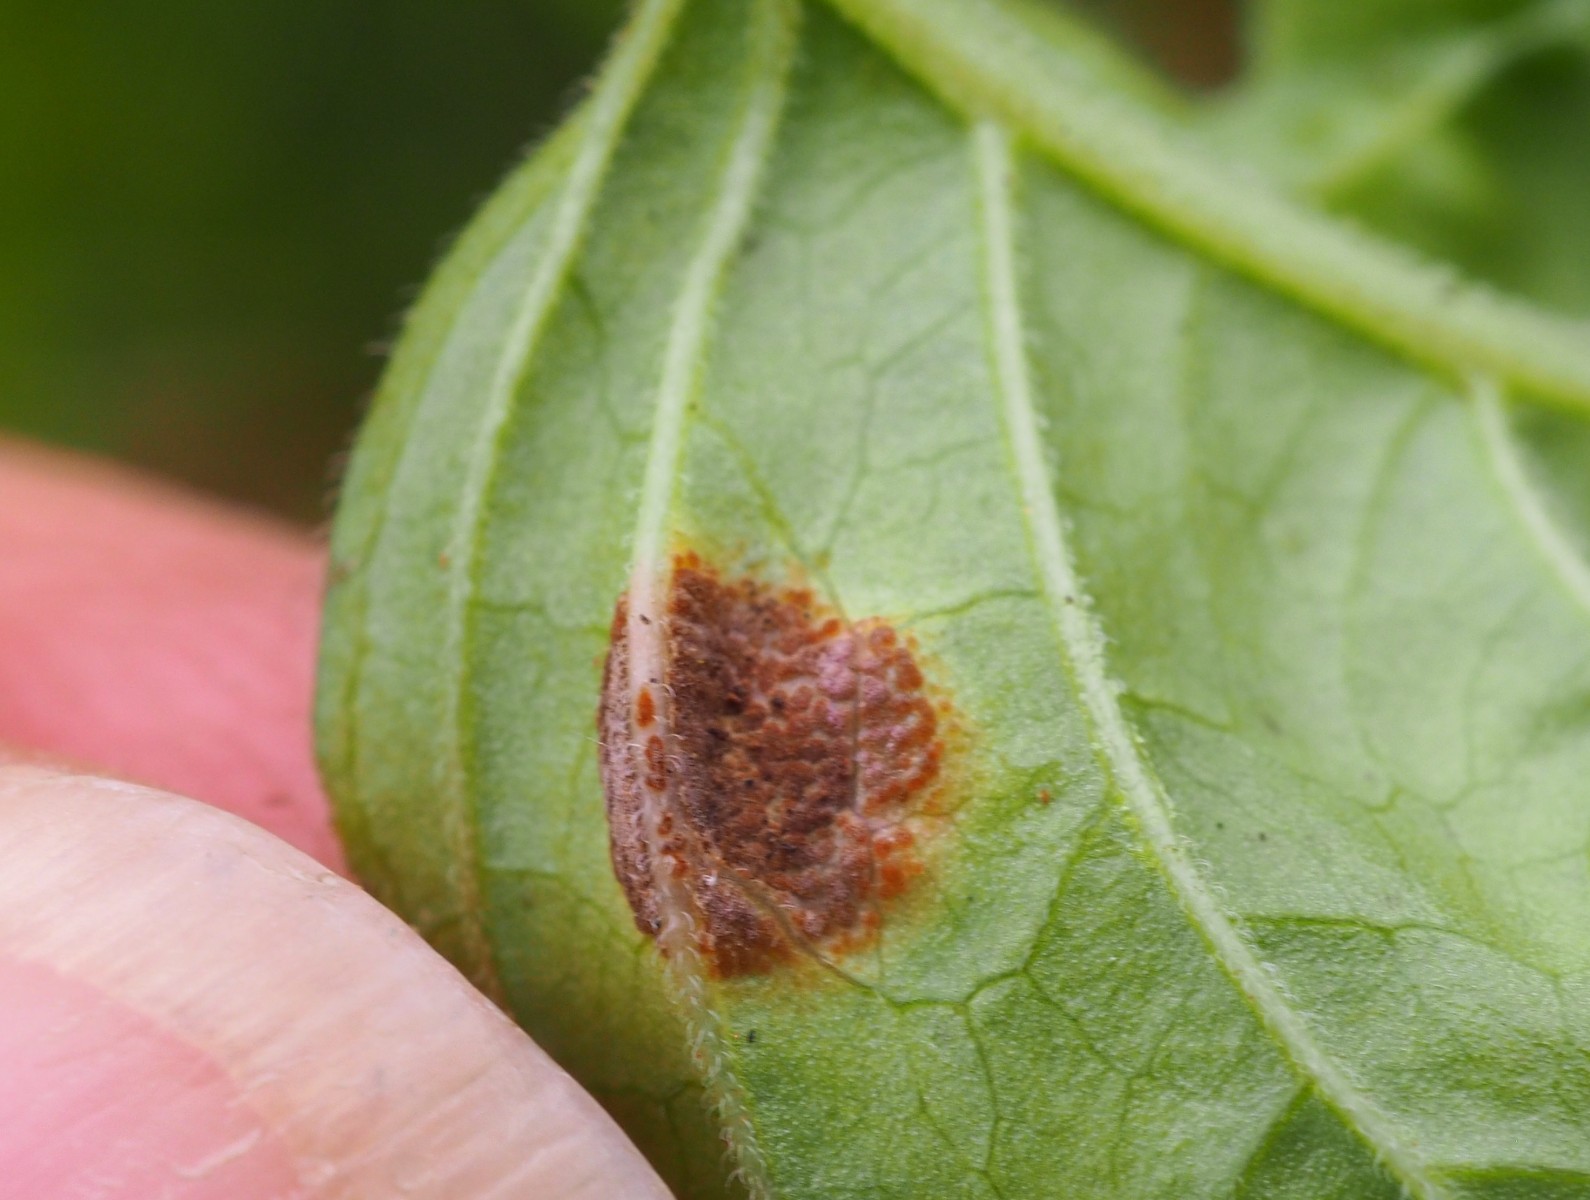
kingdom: Fungi
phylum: Basidiomycota
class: Pucciniomycetes
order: Pucciniales
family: Pucciniaceae
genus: Puccinia
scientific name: Puccinia circaeae
